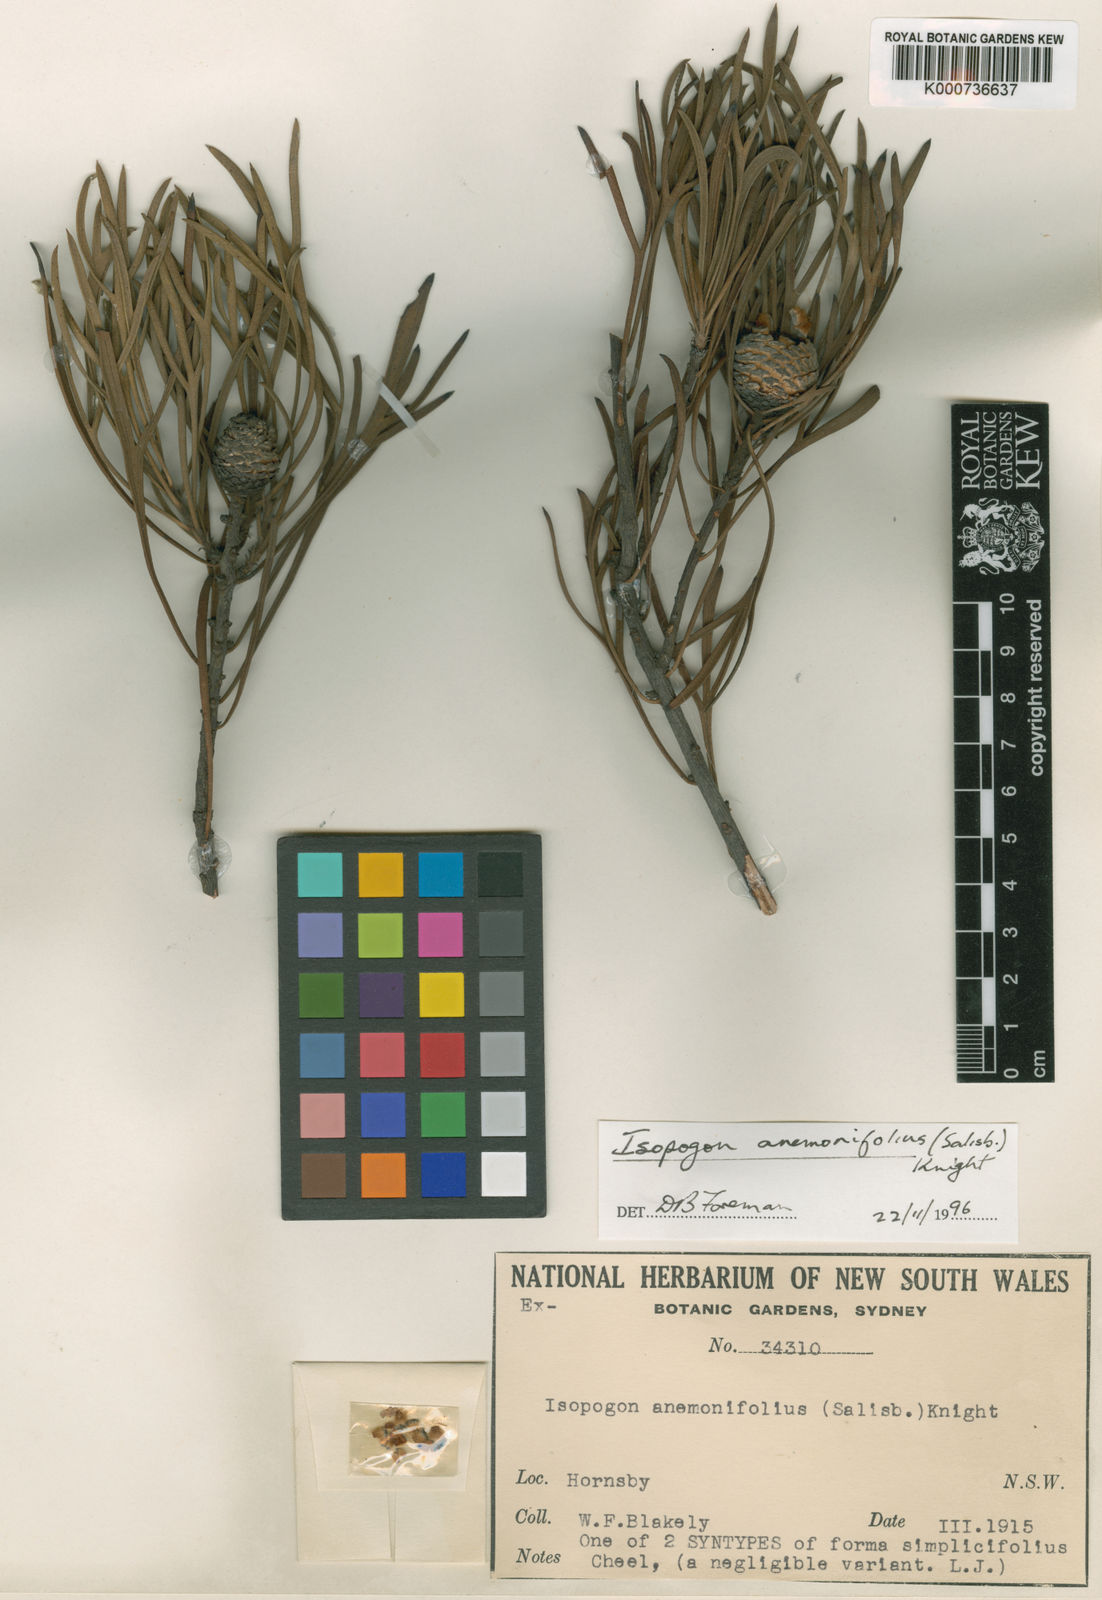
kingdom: Plantae
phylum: Tracheophyta
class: Magnoliopsida
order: Proteales
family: Proteaceae
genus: Isopogon
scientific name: Isopogon anemonifolius
